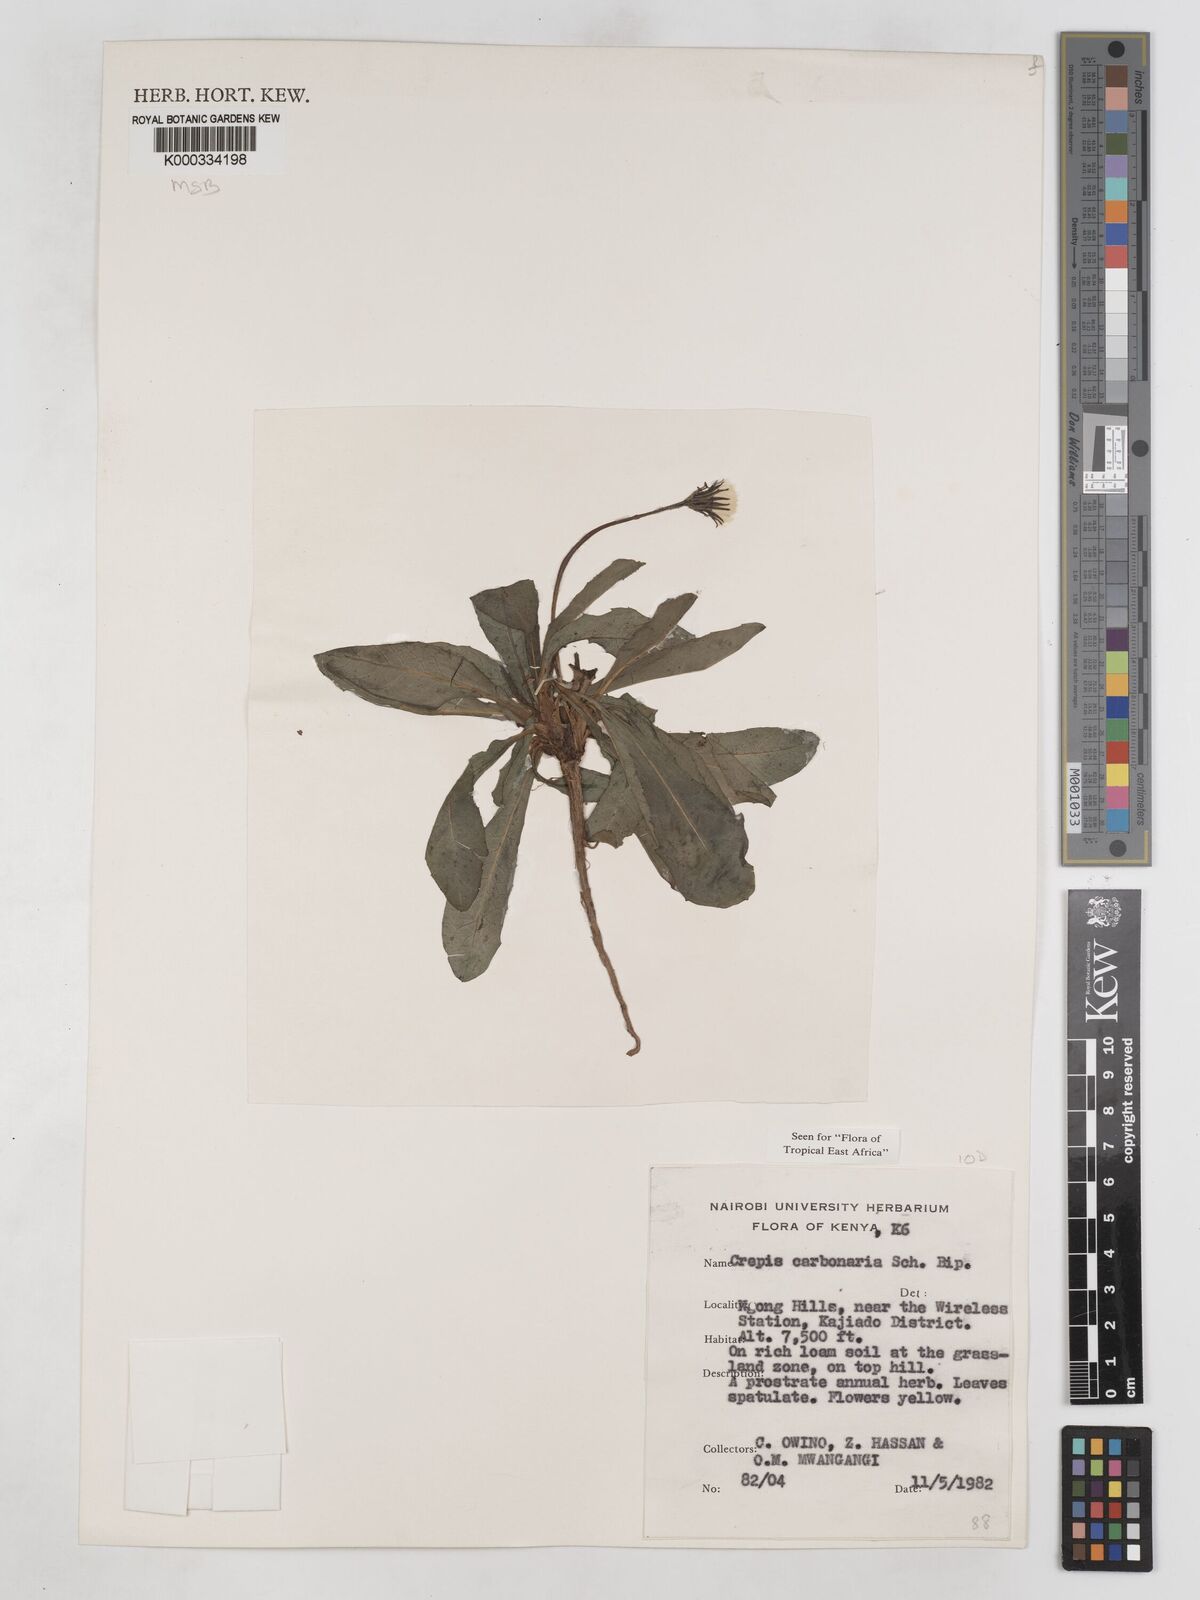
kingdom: Plantae
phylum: Tracheophyta
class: Magnoliopsida
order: Asterales
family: Asteraceae
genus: Crepis
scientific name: Crepis carbonaria
